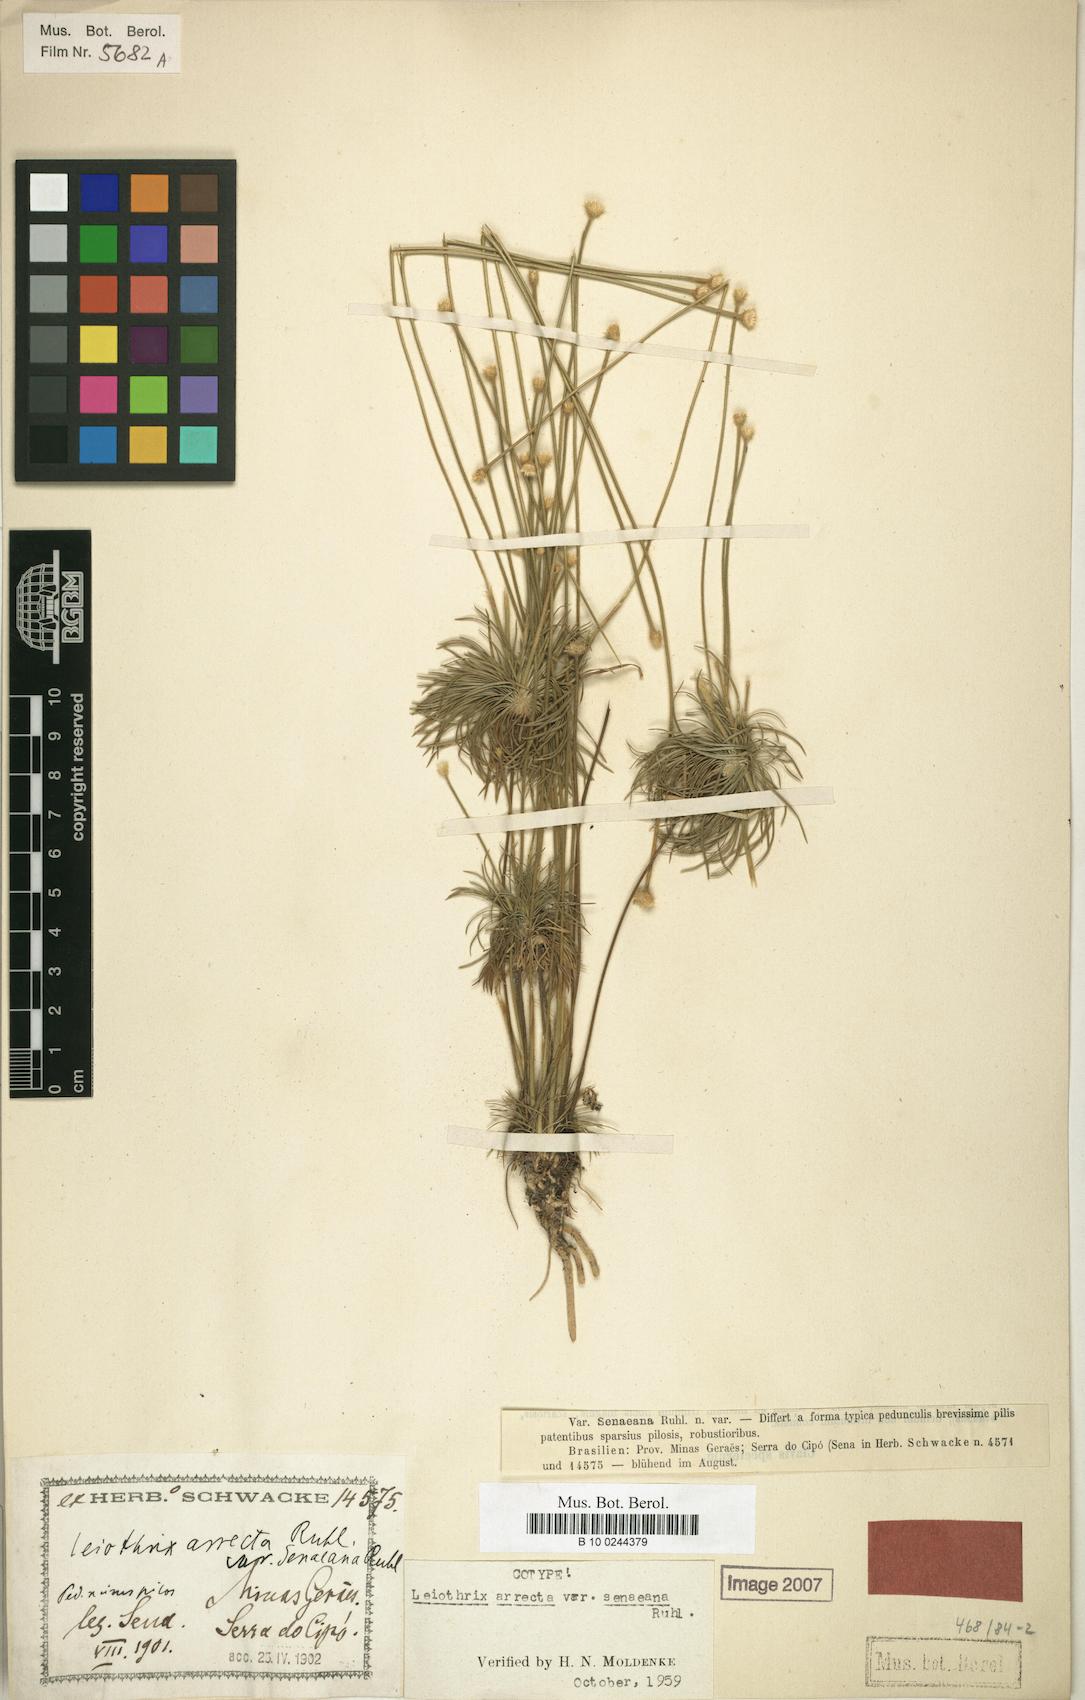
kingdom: Plantae
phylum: Tracheophyta
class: Liliopsida
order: Poales
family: Eriocaulaceae
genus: Leiothrix
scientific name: Leiothrix arrecta
